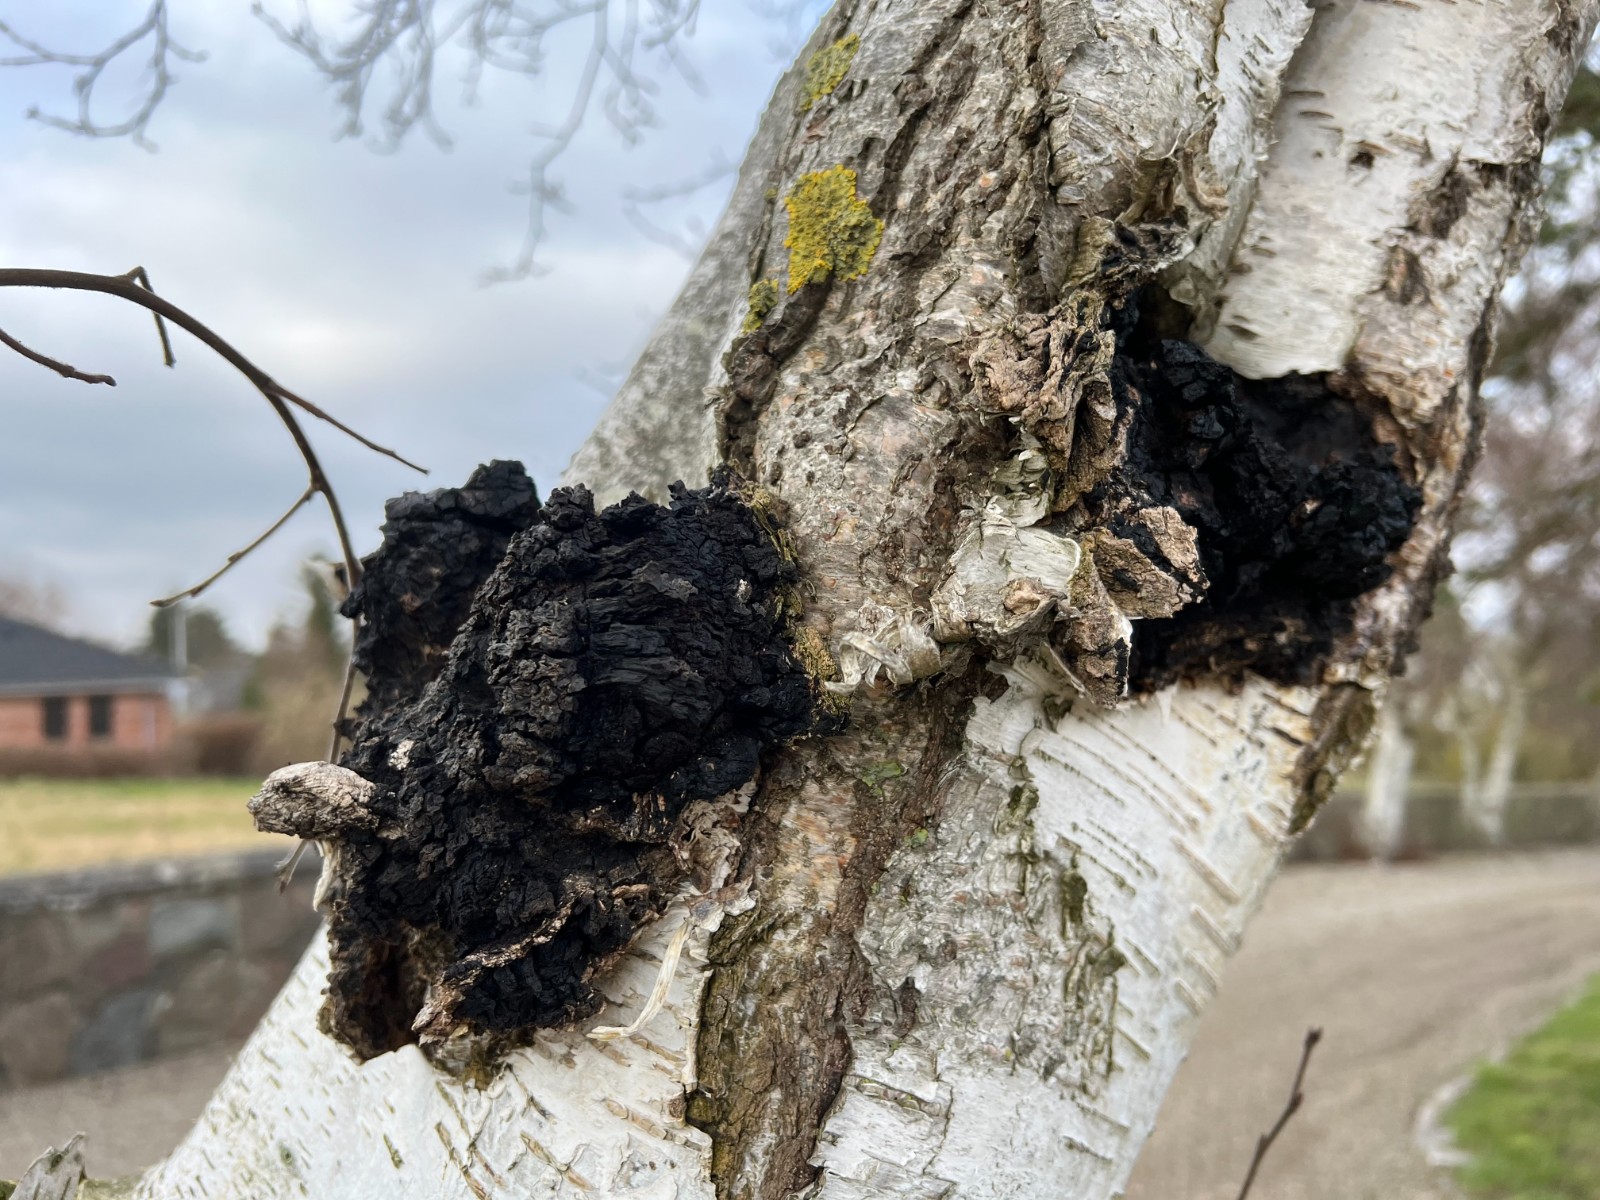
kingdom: Fungi
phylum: Basidiomycota
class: Agaricomycetes
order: Hymenochaetales
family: Hymenochaetaceae
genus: Inonotus
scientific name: Inonotus obliquus
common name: birke-spejlporesvamp
